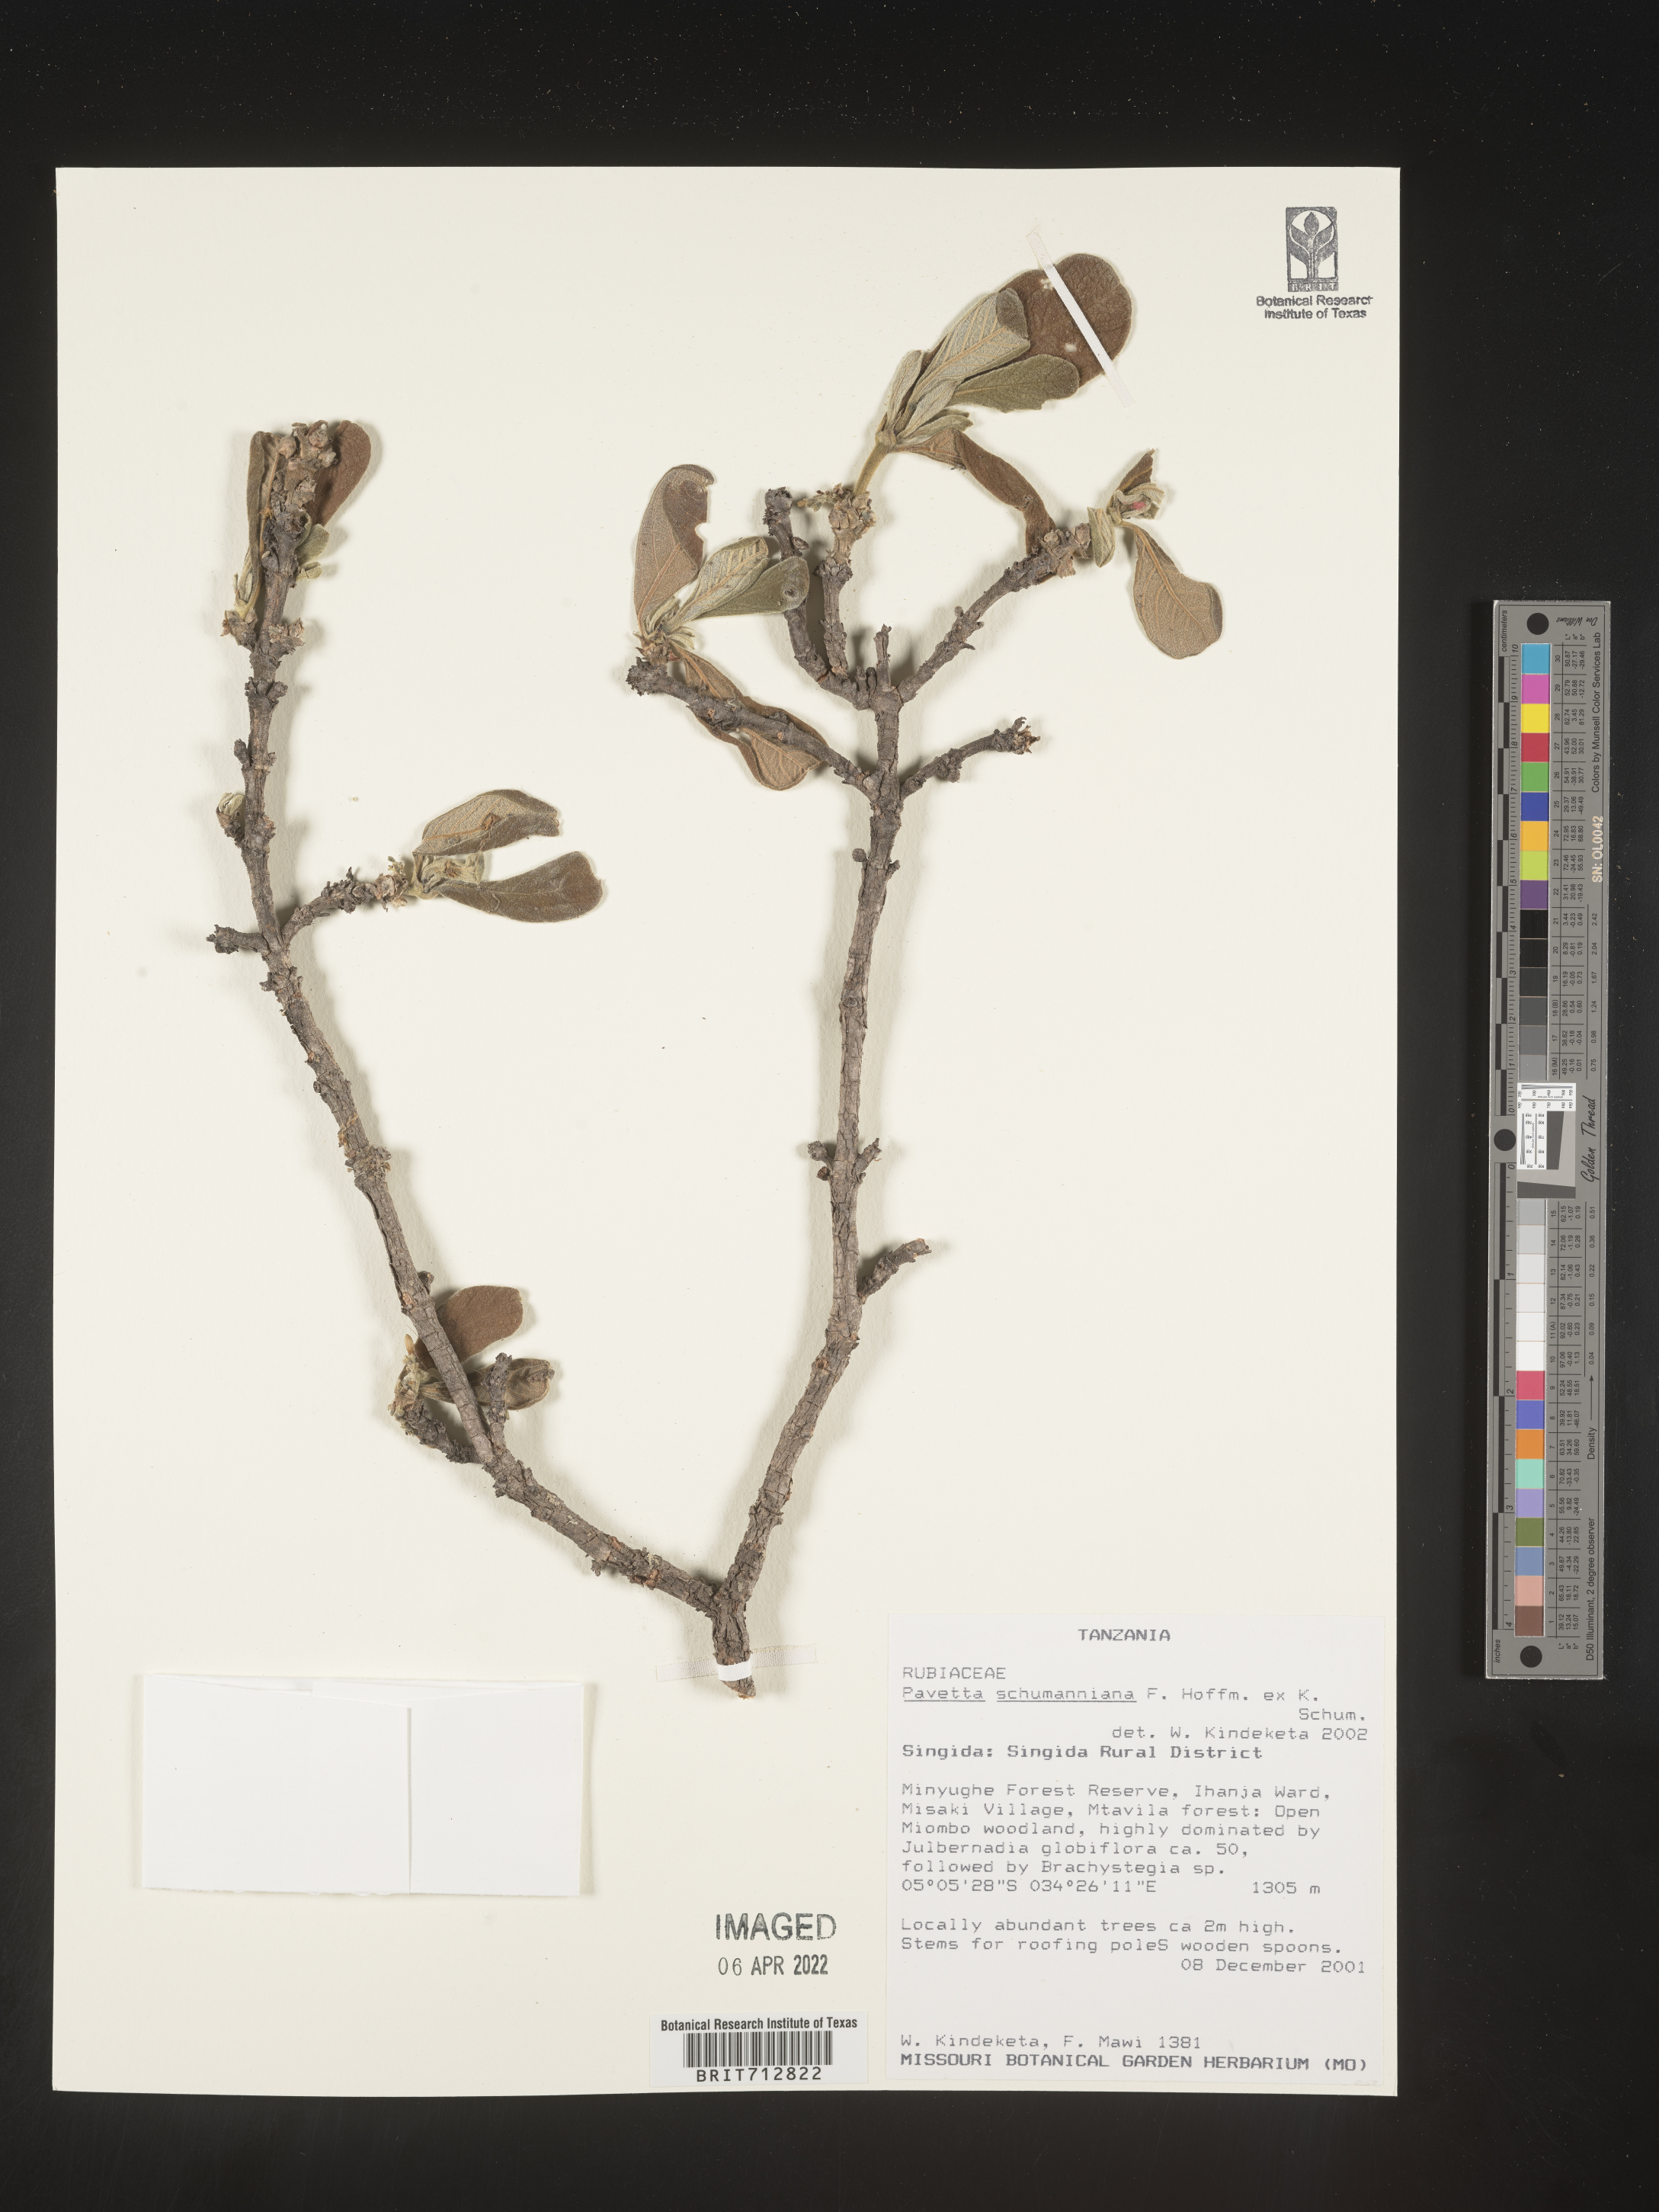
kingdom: Plantae
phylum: Tracheophyta
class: Magnoliopsida
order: Gentianales
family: Rubiaceae
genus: Pavetta
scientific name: Pavetta
